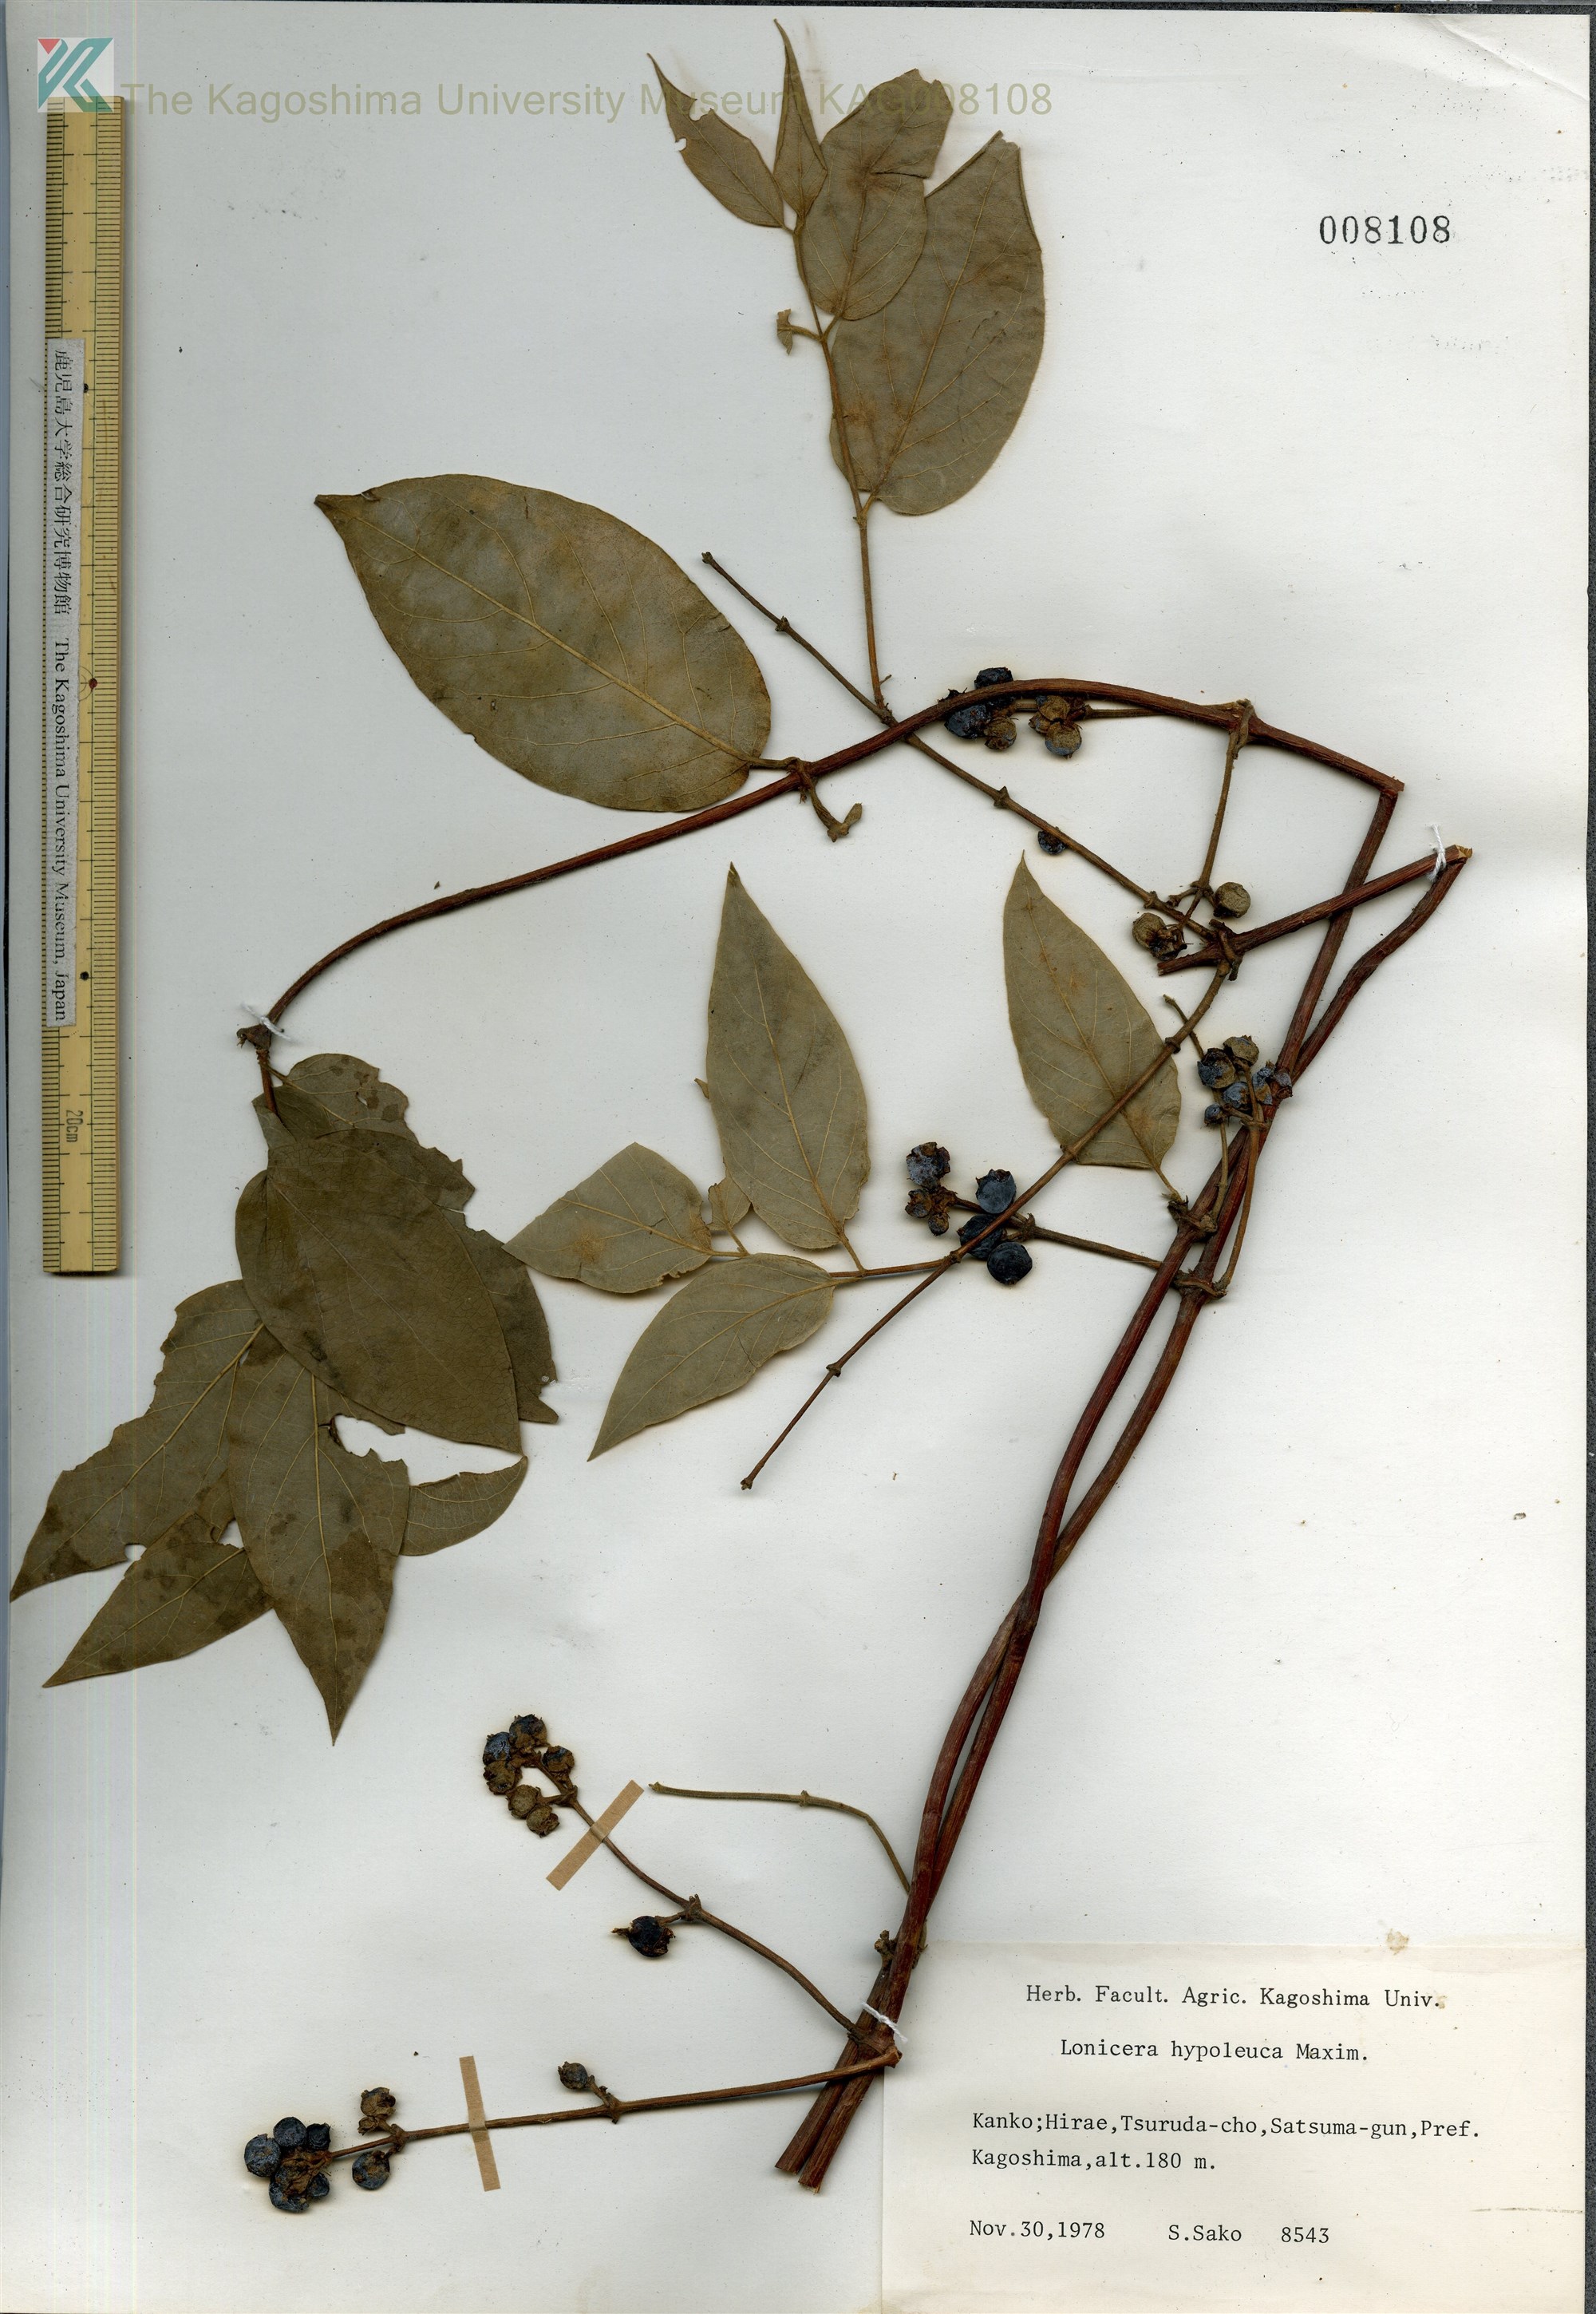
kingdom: Plantae
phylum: Tracheophyta
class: Magnoliopsida
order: Dipsacales
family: Caprifoliaceae
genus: Lonicera
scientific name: Lonicera hypoglauca
